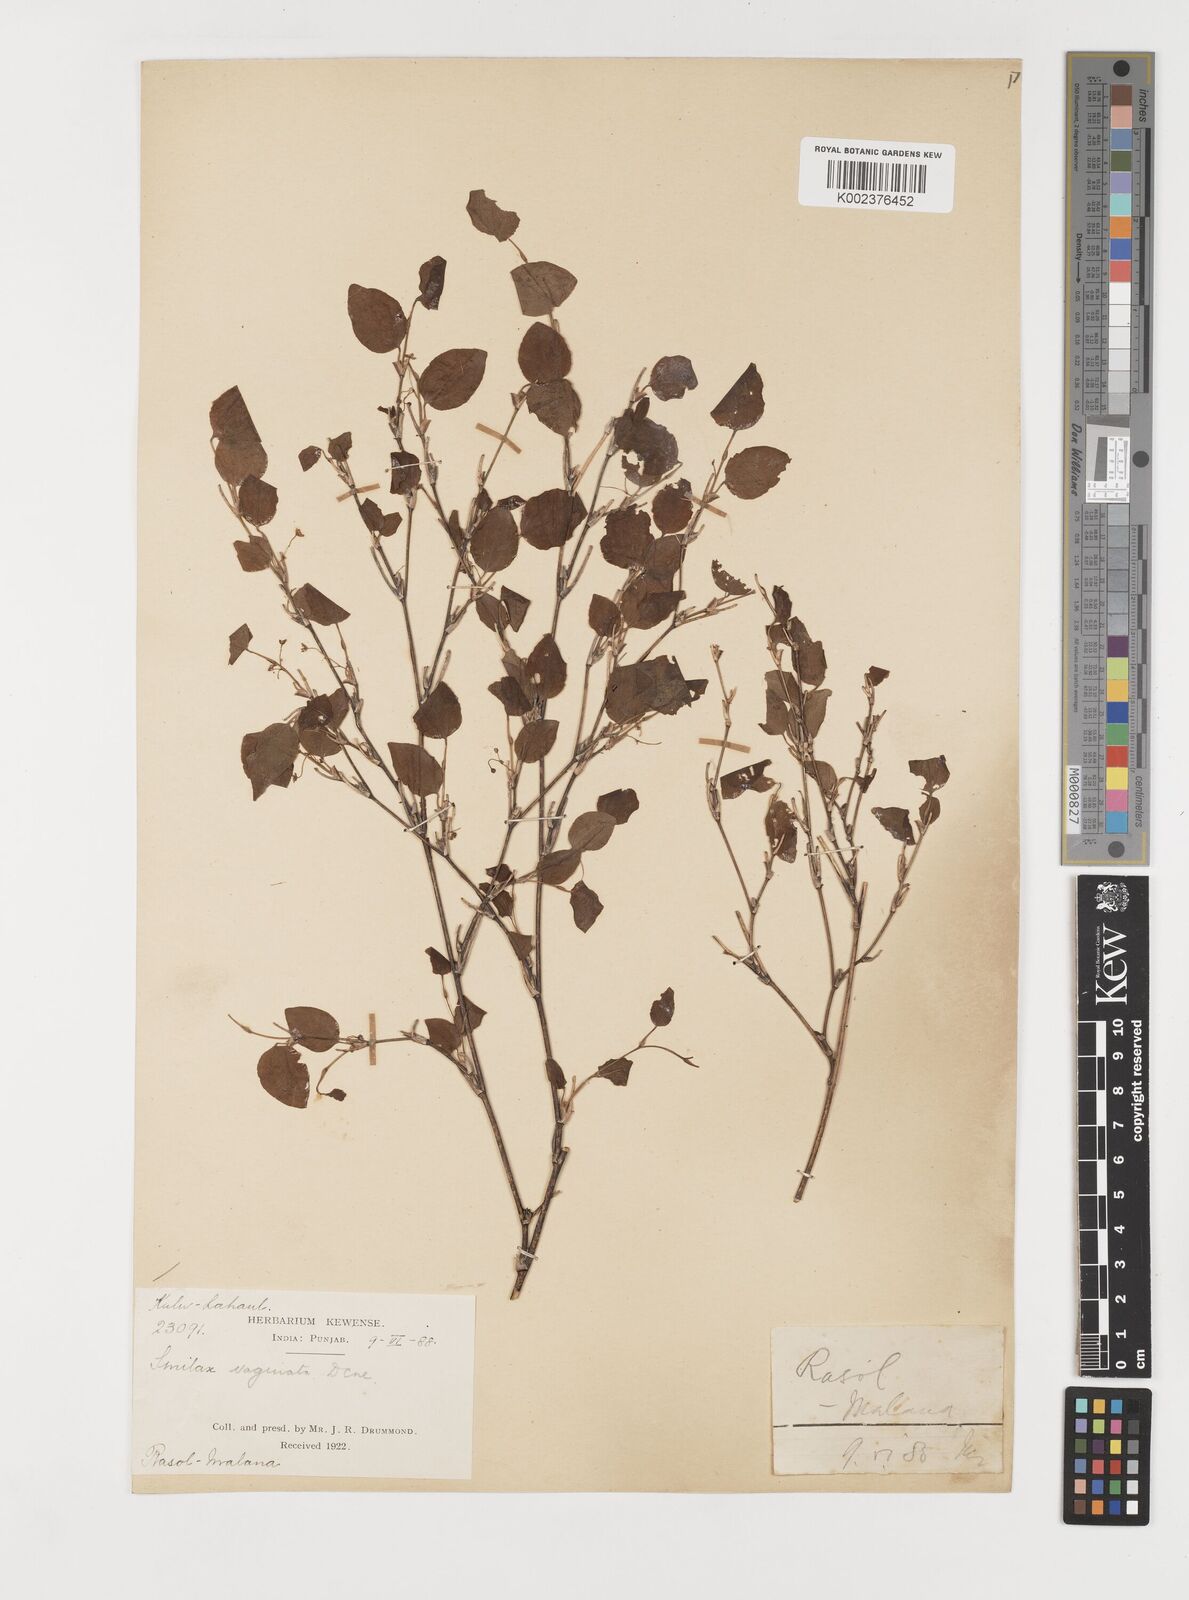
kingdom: Plantae
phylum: Tracheophyta
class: Liliopsida
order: Liliales
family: Smilacaceae
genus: Smilax
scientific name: Smilax vaginata
